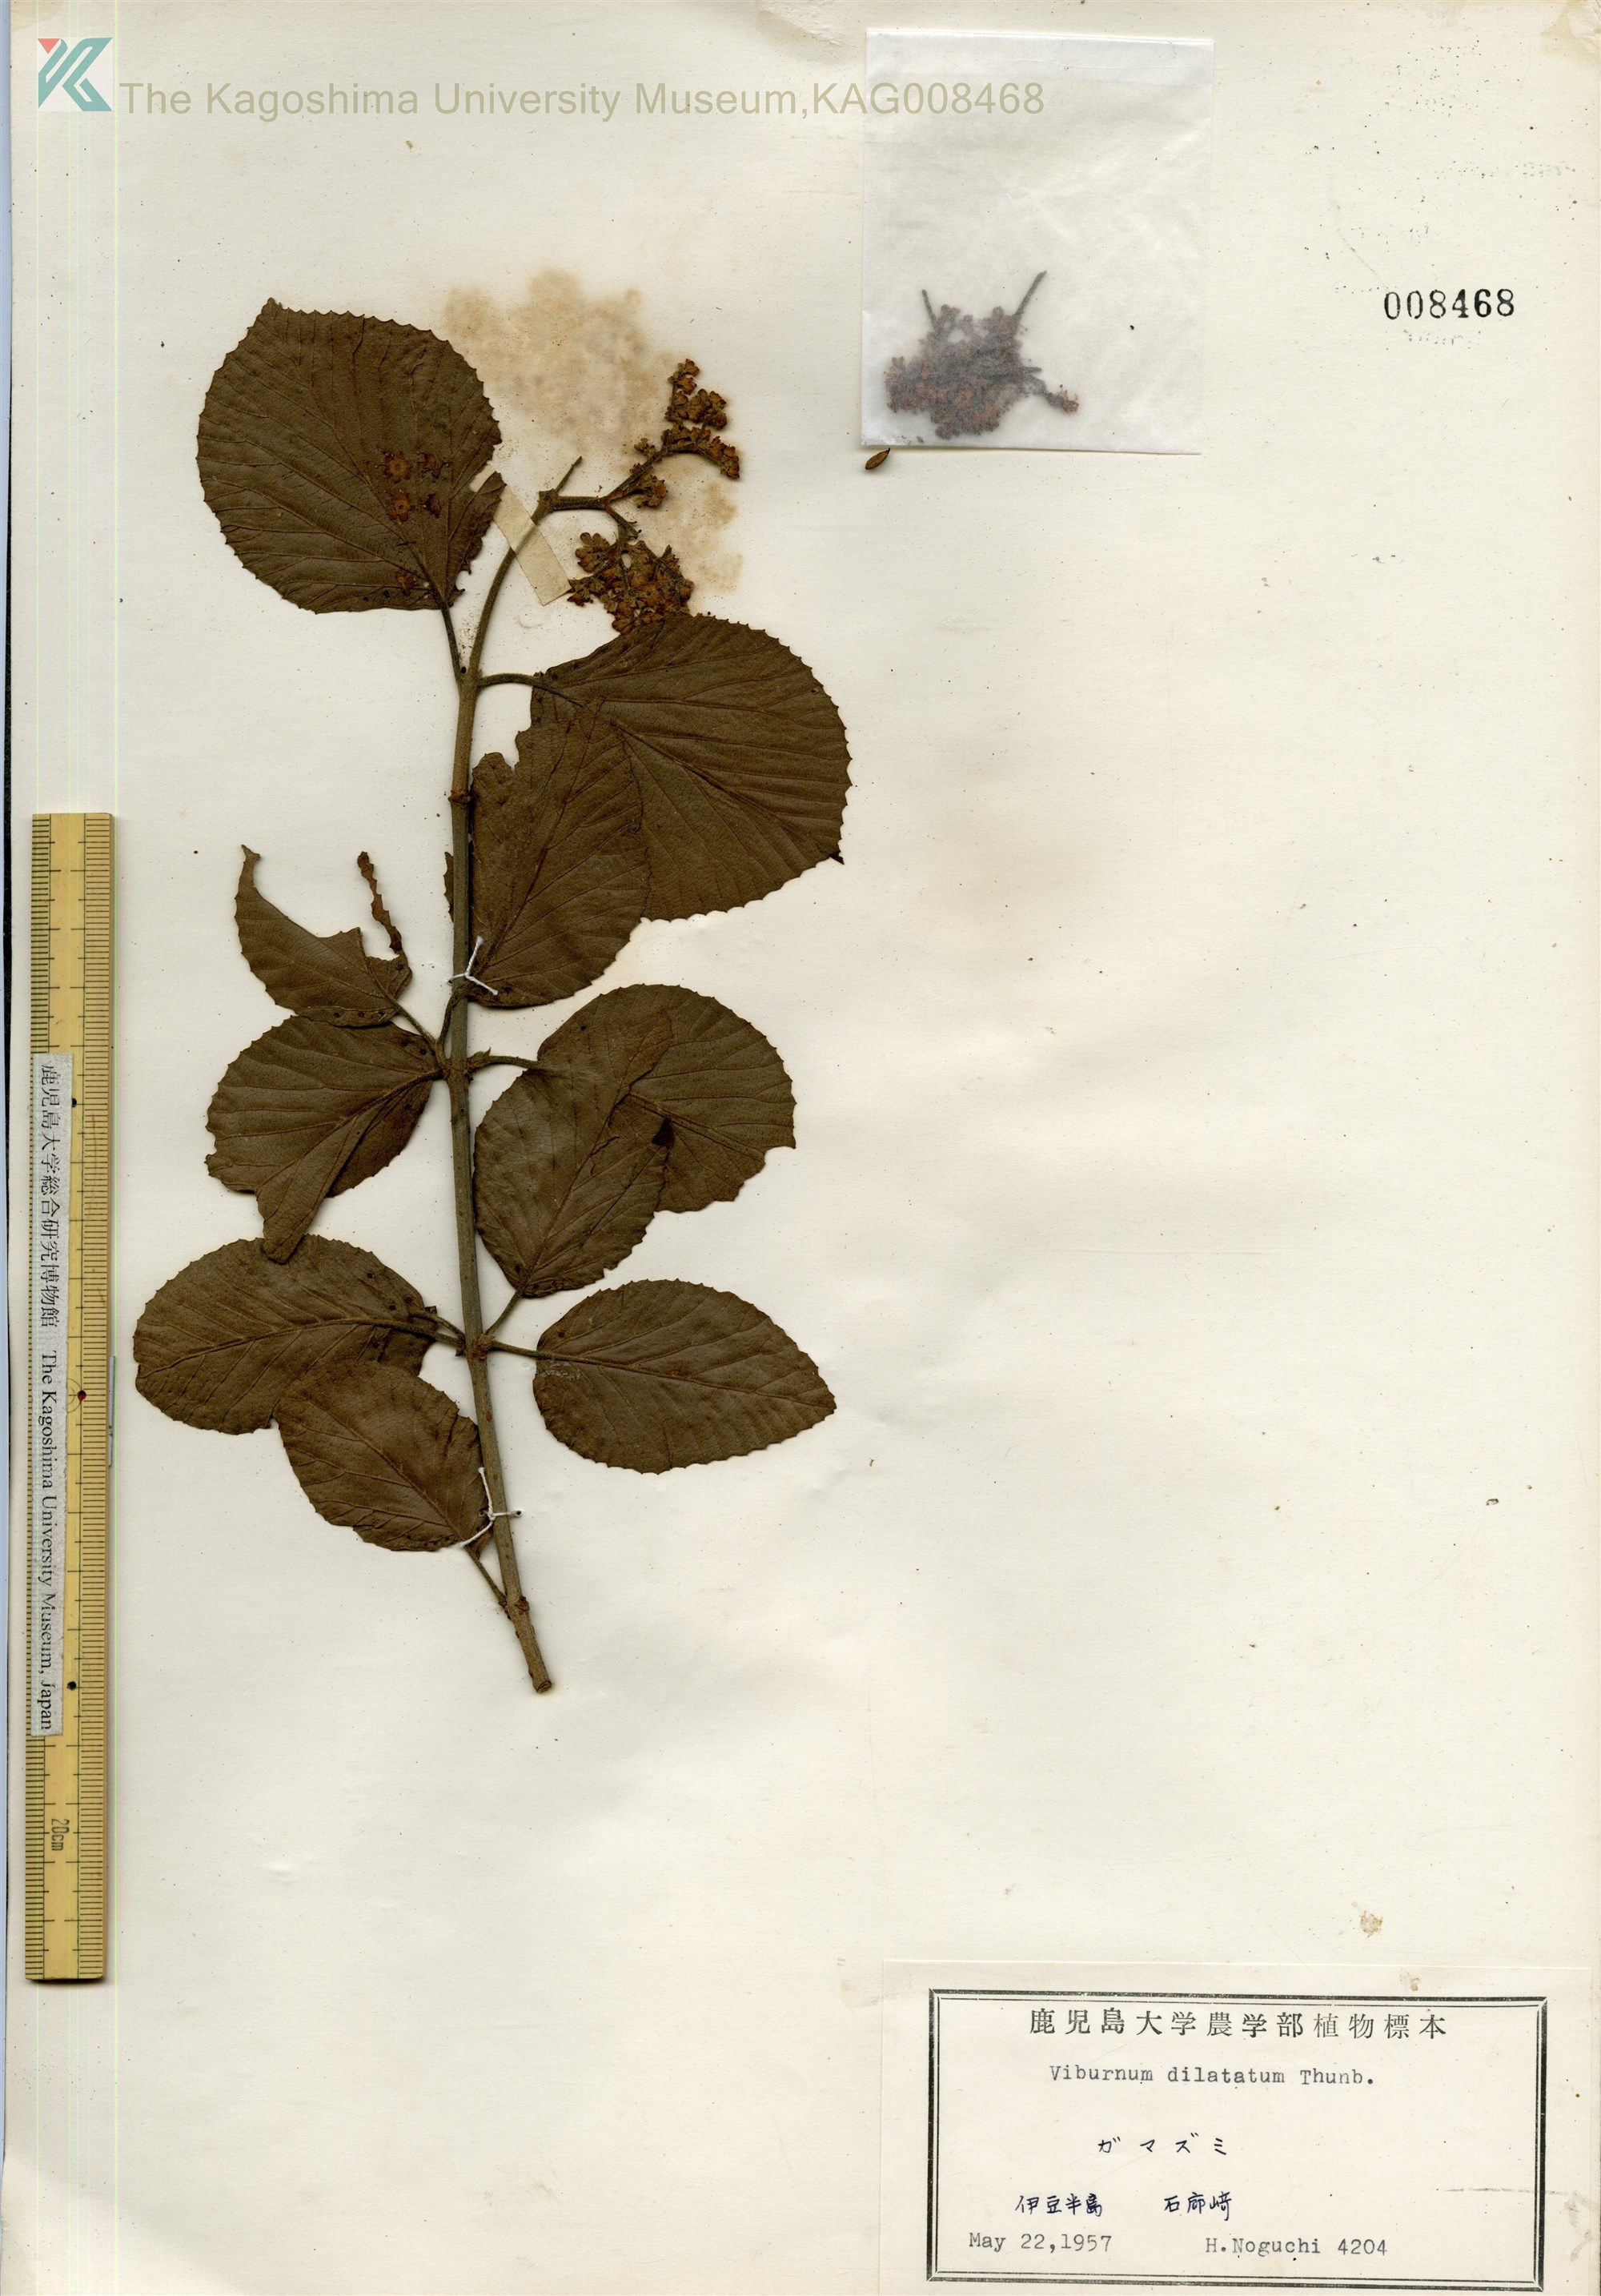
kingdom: Plantae
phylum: Tracheophyta
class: Magnoliopsida
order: Dipsacales
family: Viburnaceae
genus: Viburnum
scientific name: Viburnum dilatatum
